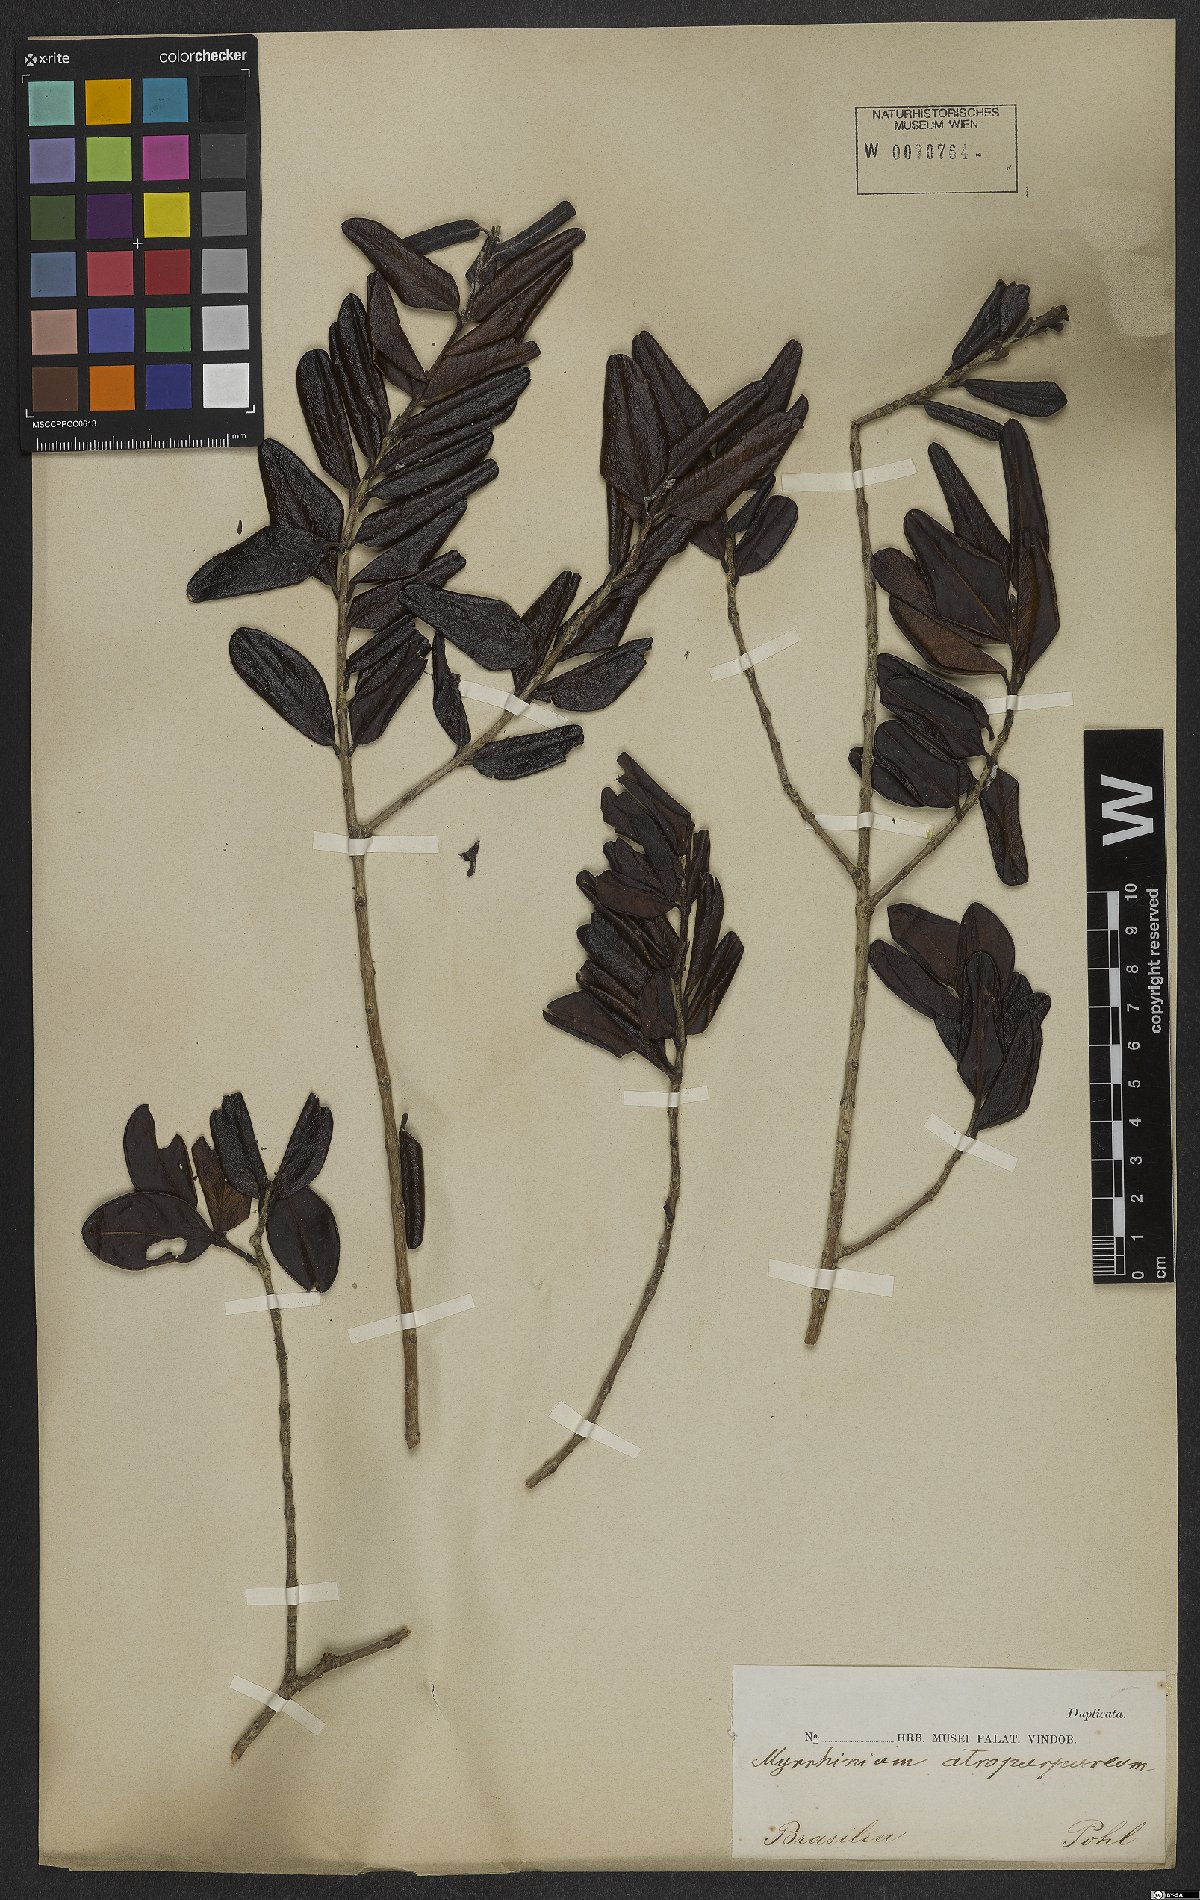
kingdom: Plantae
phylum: Tracheophyta
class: Magnoliopsida
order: Myrtales
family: Myrtaceae
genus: Myrrhinium
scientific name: Myrrhinium atropurpureum
